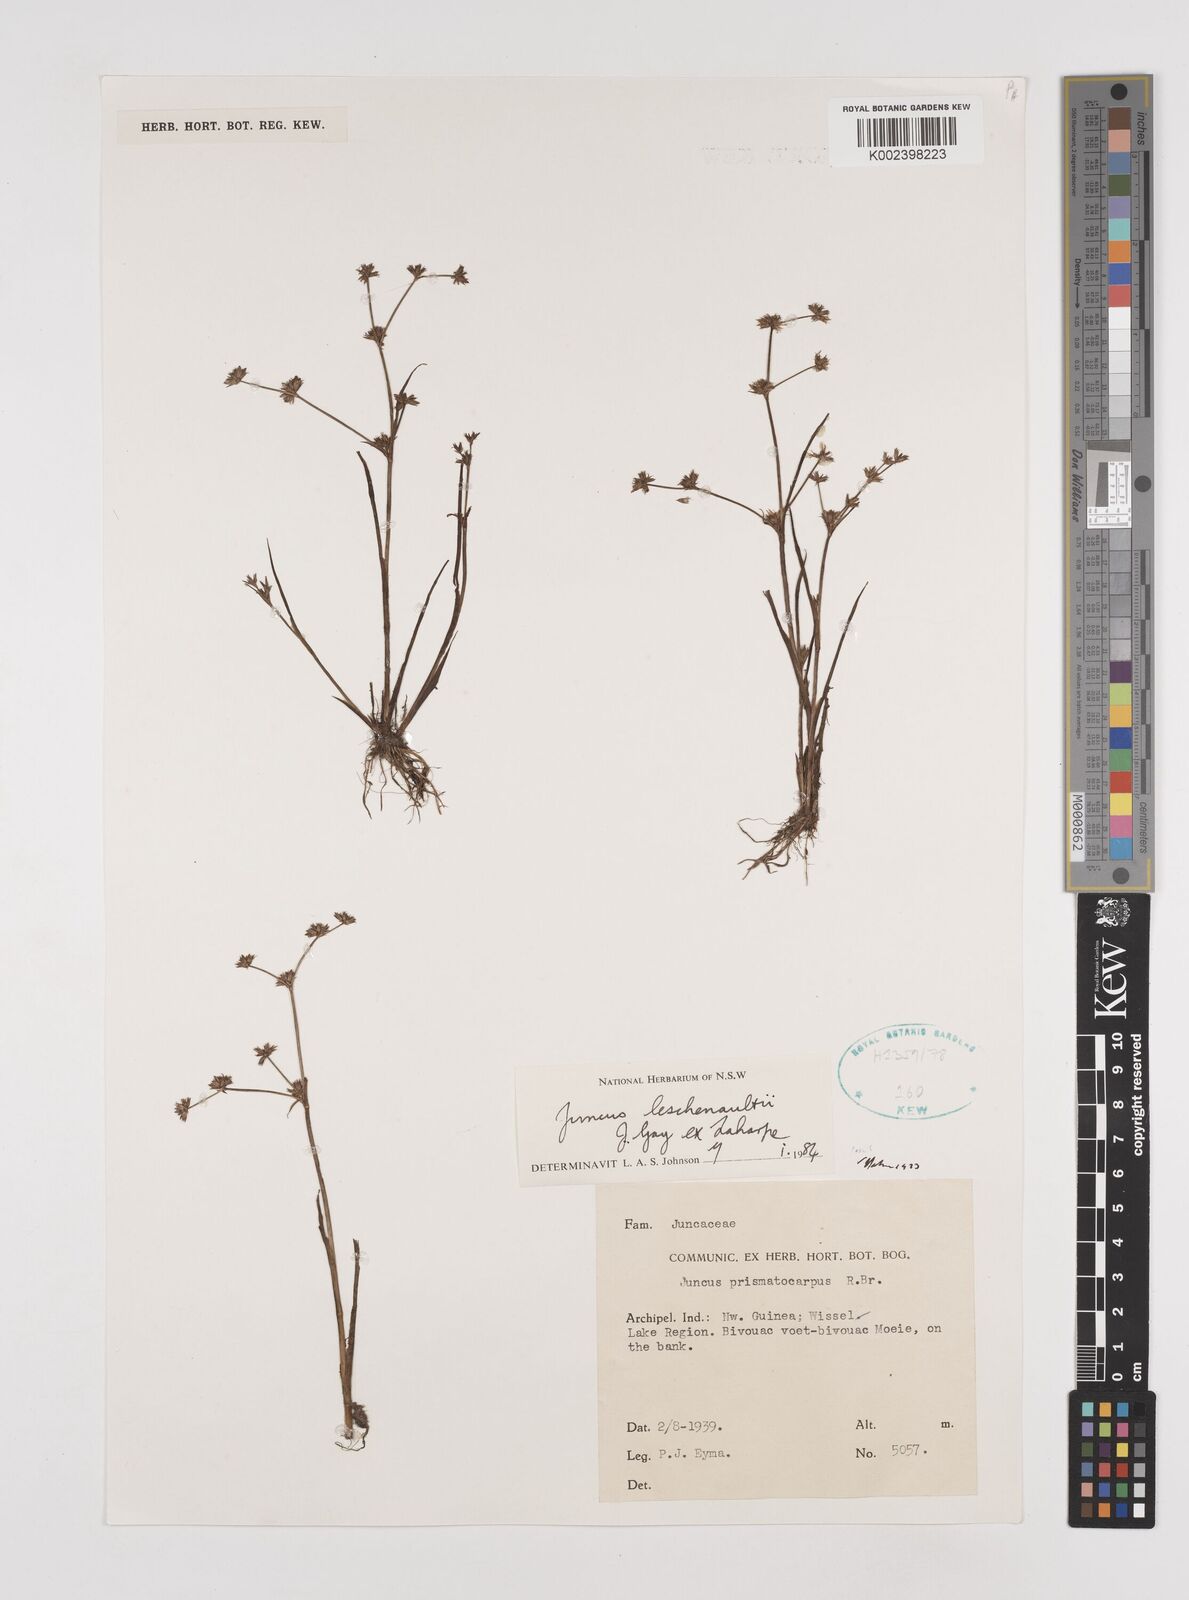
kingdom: Plantae
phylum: Tracheophyta
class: Liliopsida
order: Poales
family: Juncaceae
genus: Juncus
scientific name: Juncus prismatocarpus
